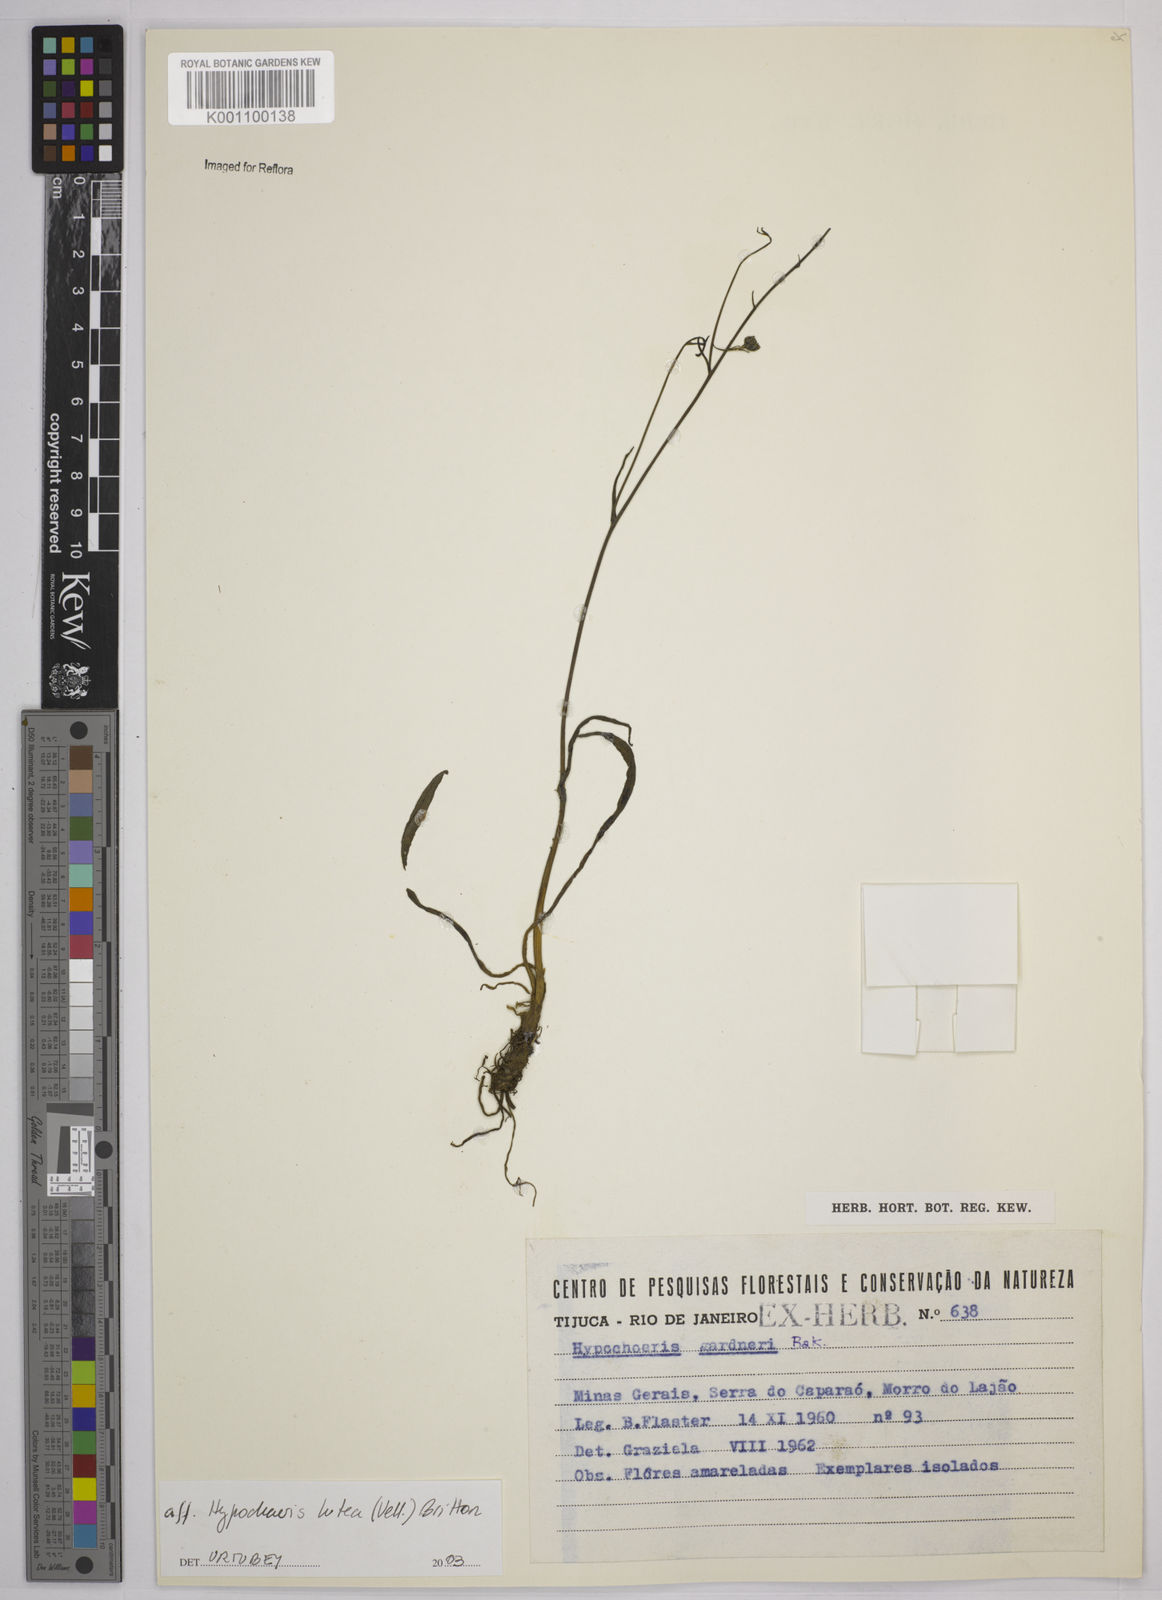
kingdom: Plantae
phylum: Tracheophyta
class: Magnoliopsida
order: Asterales
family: Asteraceae
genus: Hypochaeris
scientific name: Hypochaeris
